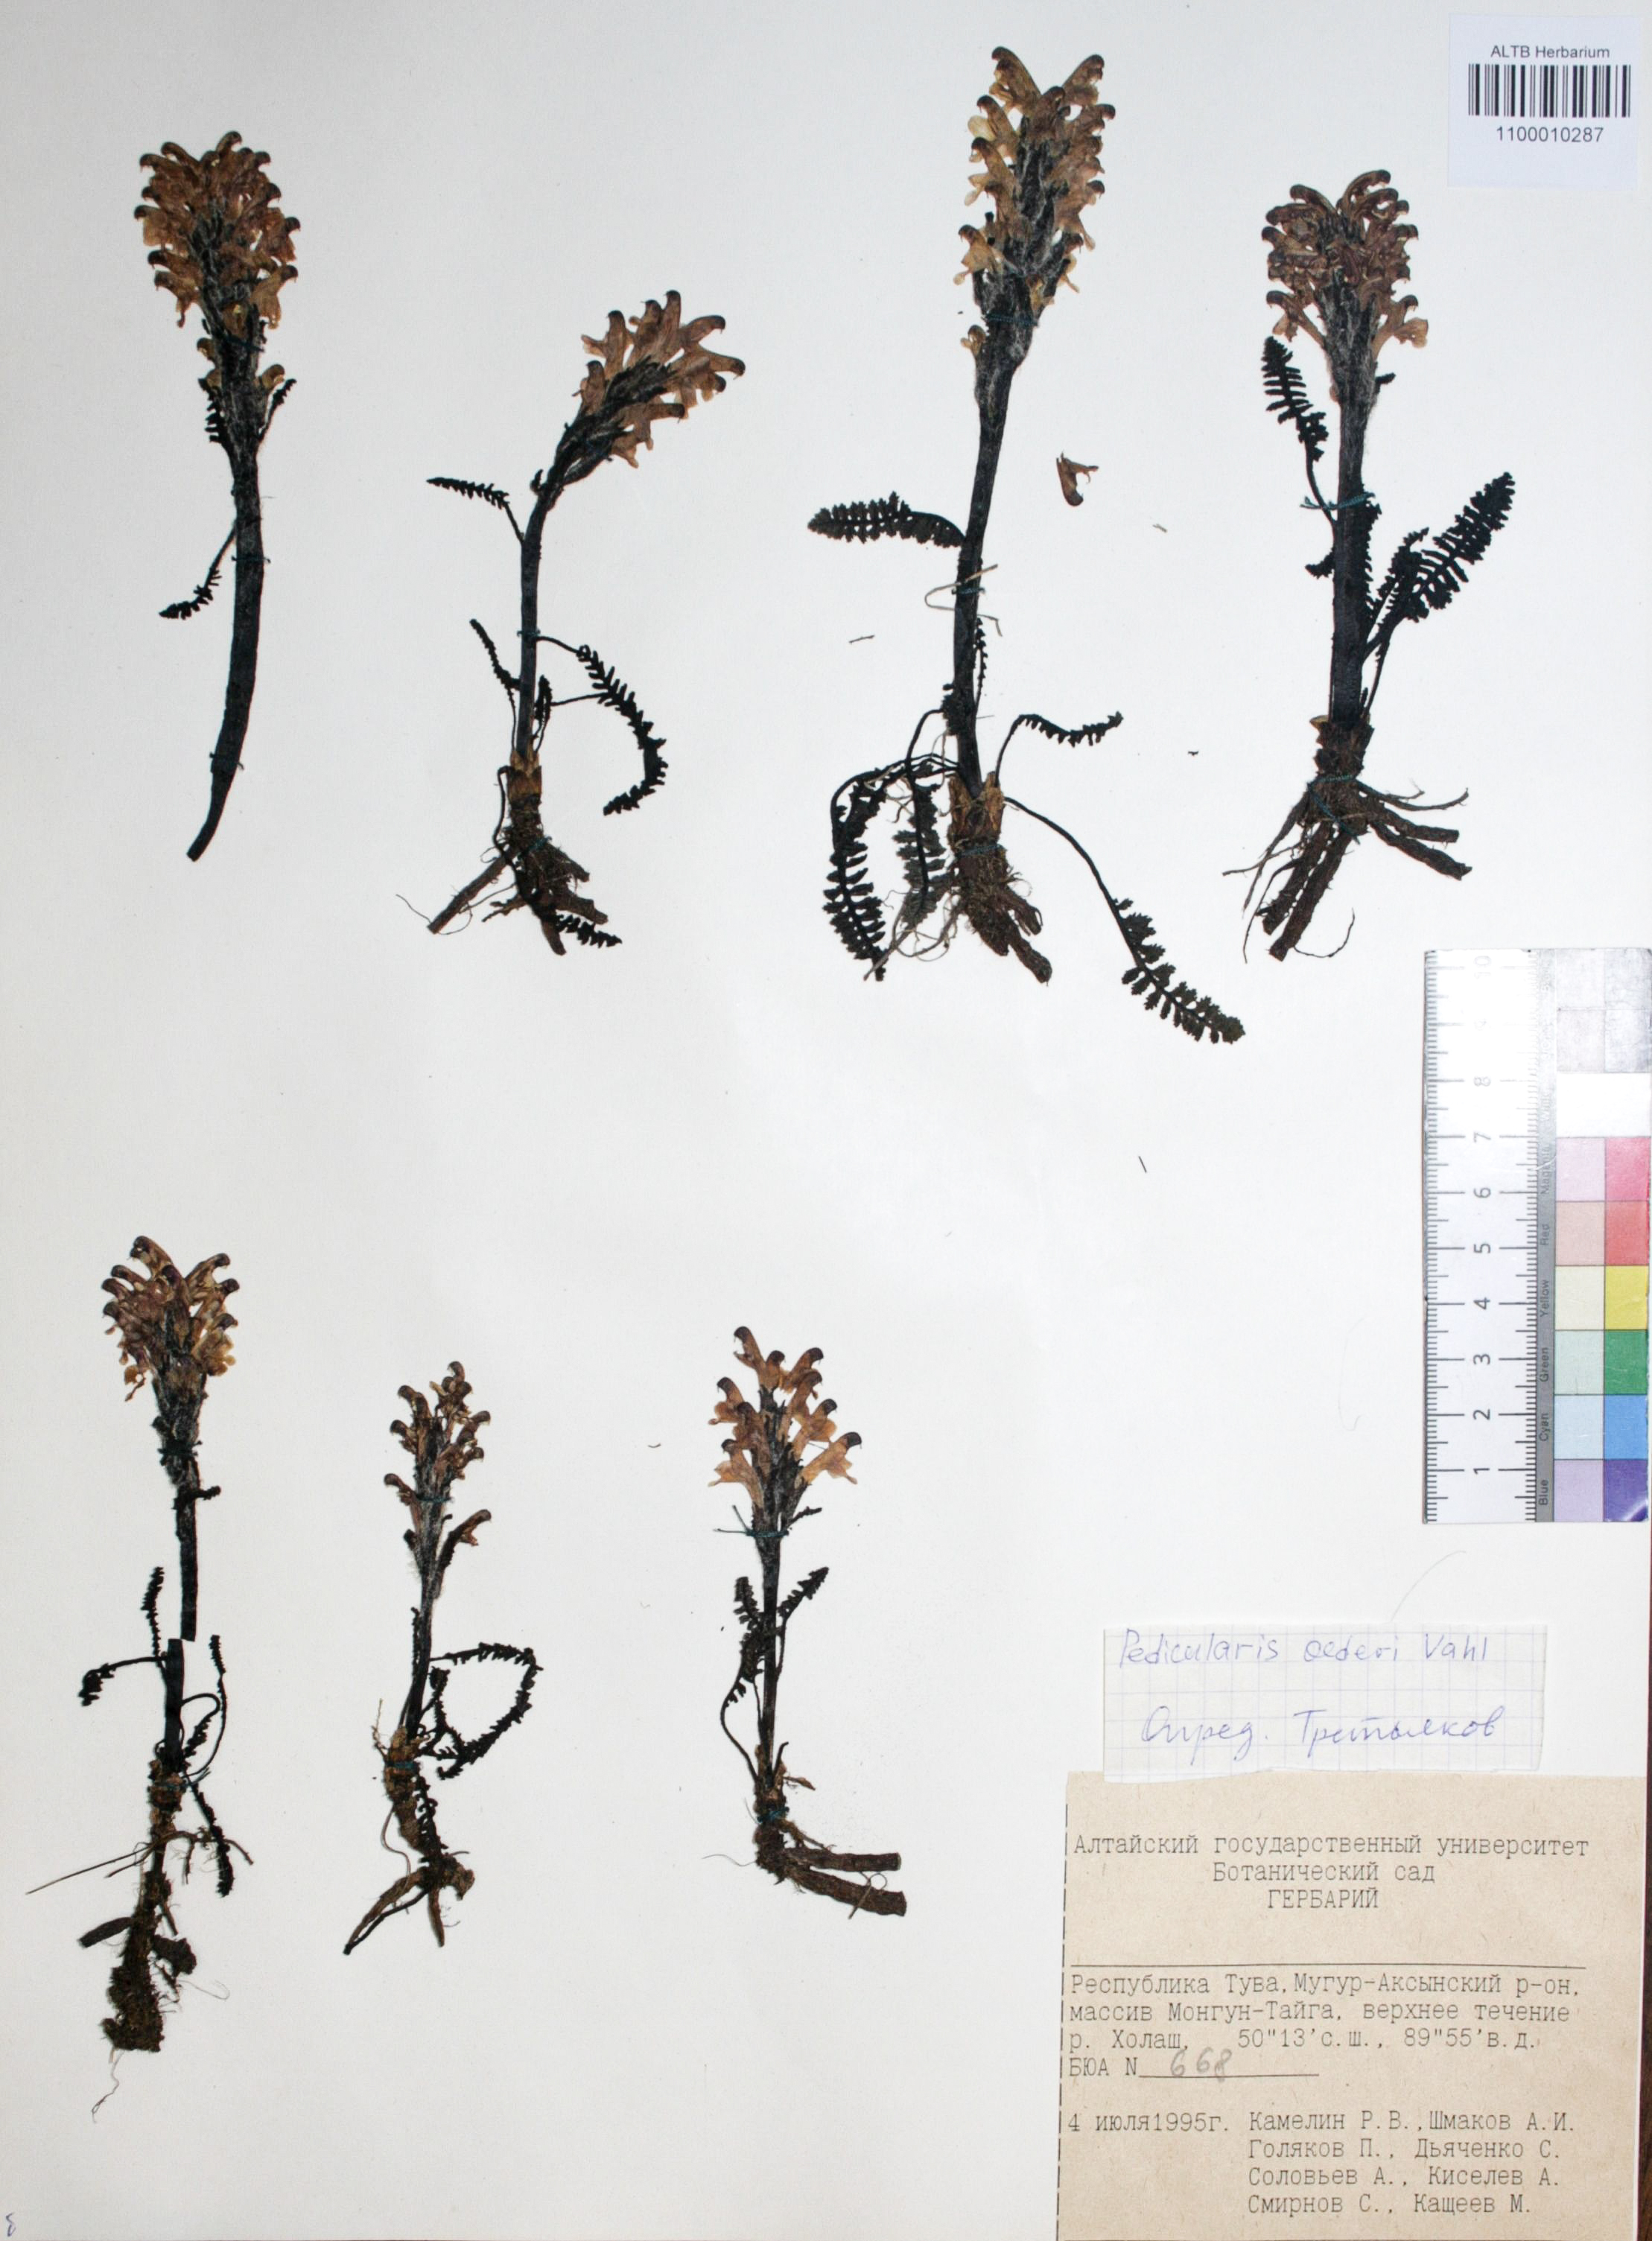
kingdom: Plantae
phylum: Tracheophyta
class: Magnoliopsida
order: Caryophyllales
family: Caryophyllaceae
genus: Silene
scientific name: Silene graminifolia
